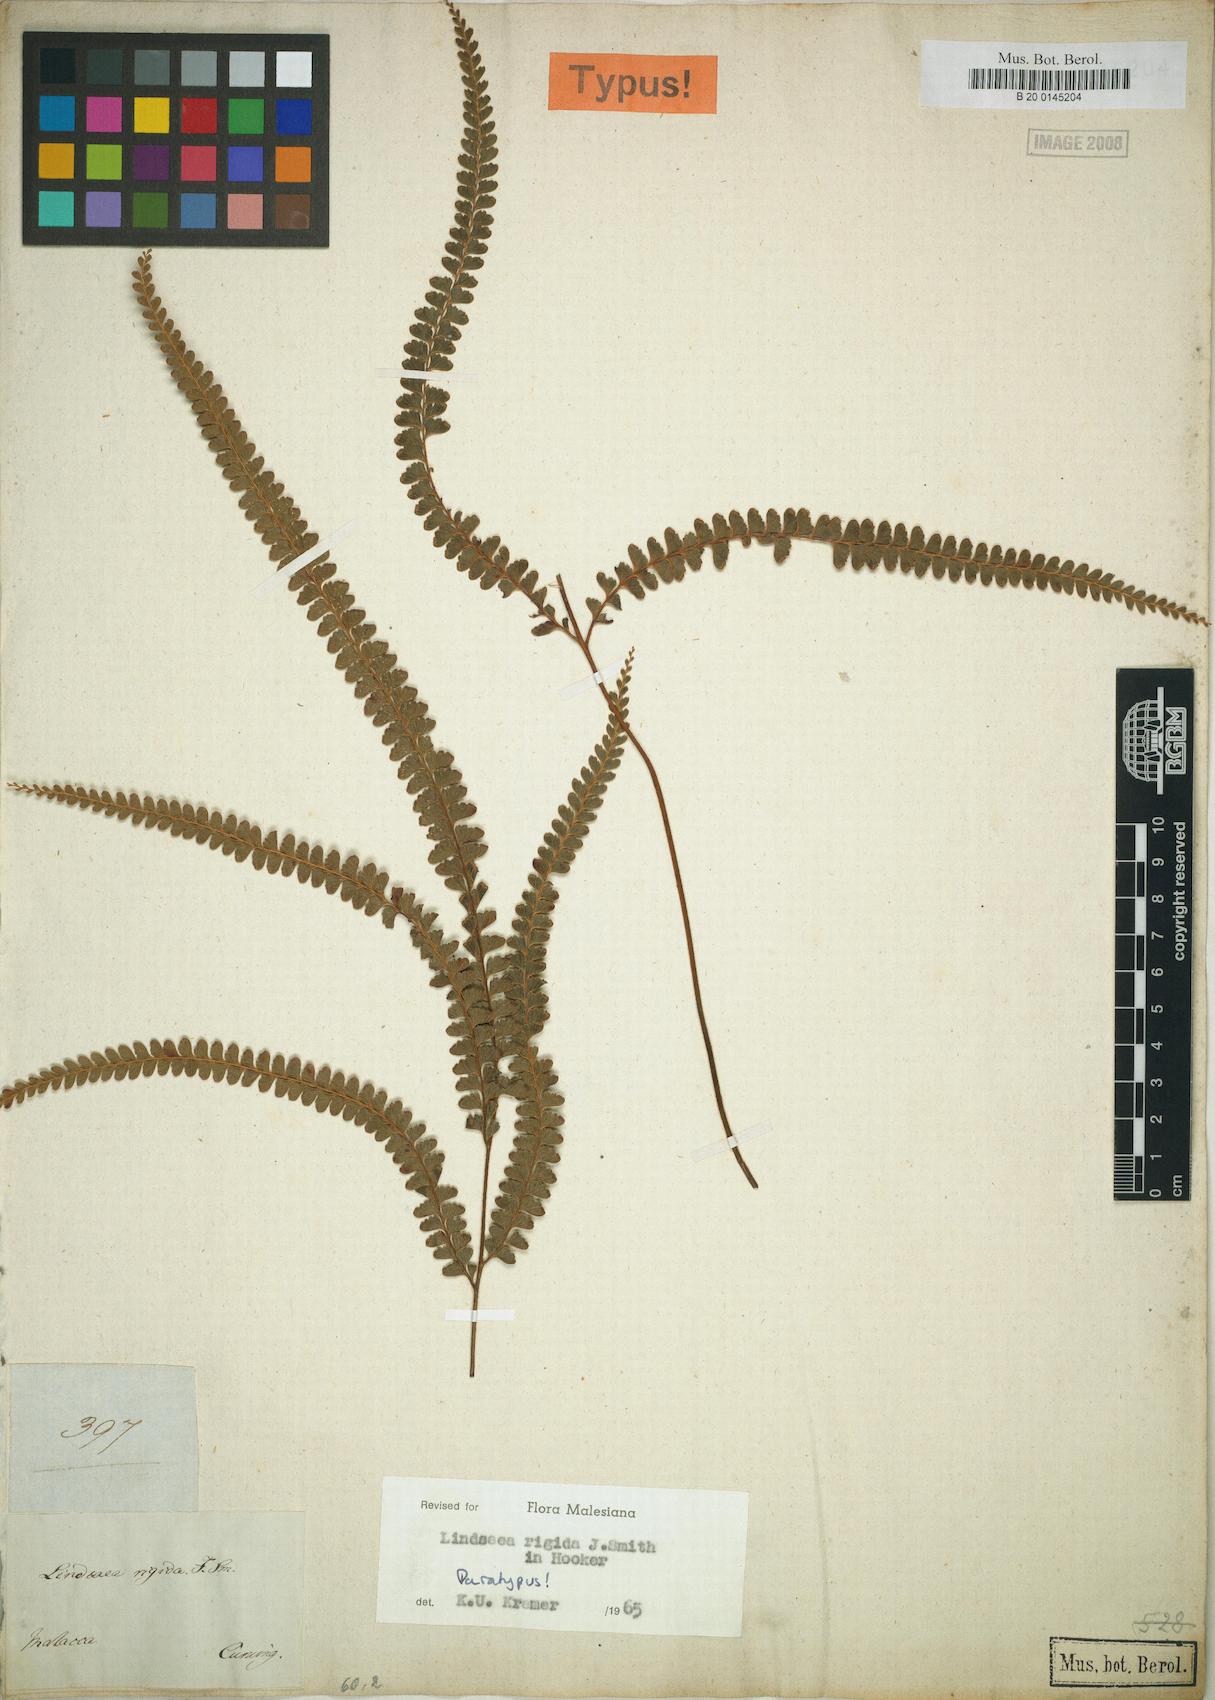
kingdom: Plantae
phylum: Tracheophyta
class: Polypodiopsida
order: Polypodiales
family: Lindsaeaceae
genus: Lindsaea
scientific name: Lindsaea rigida
